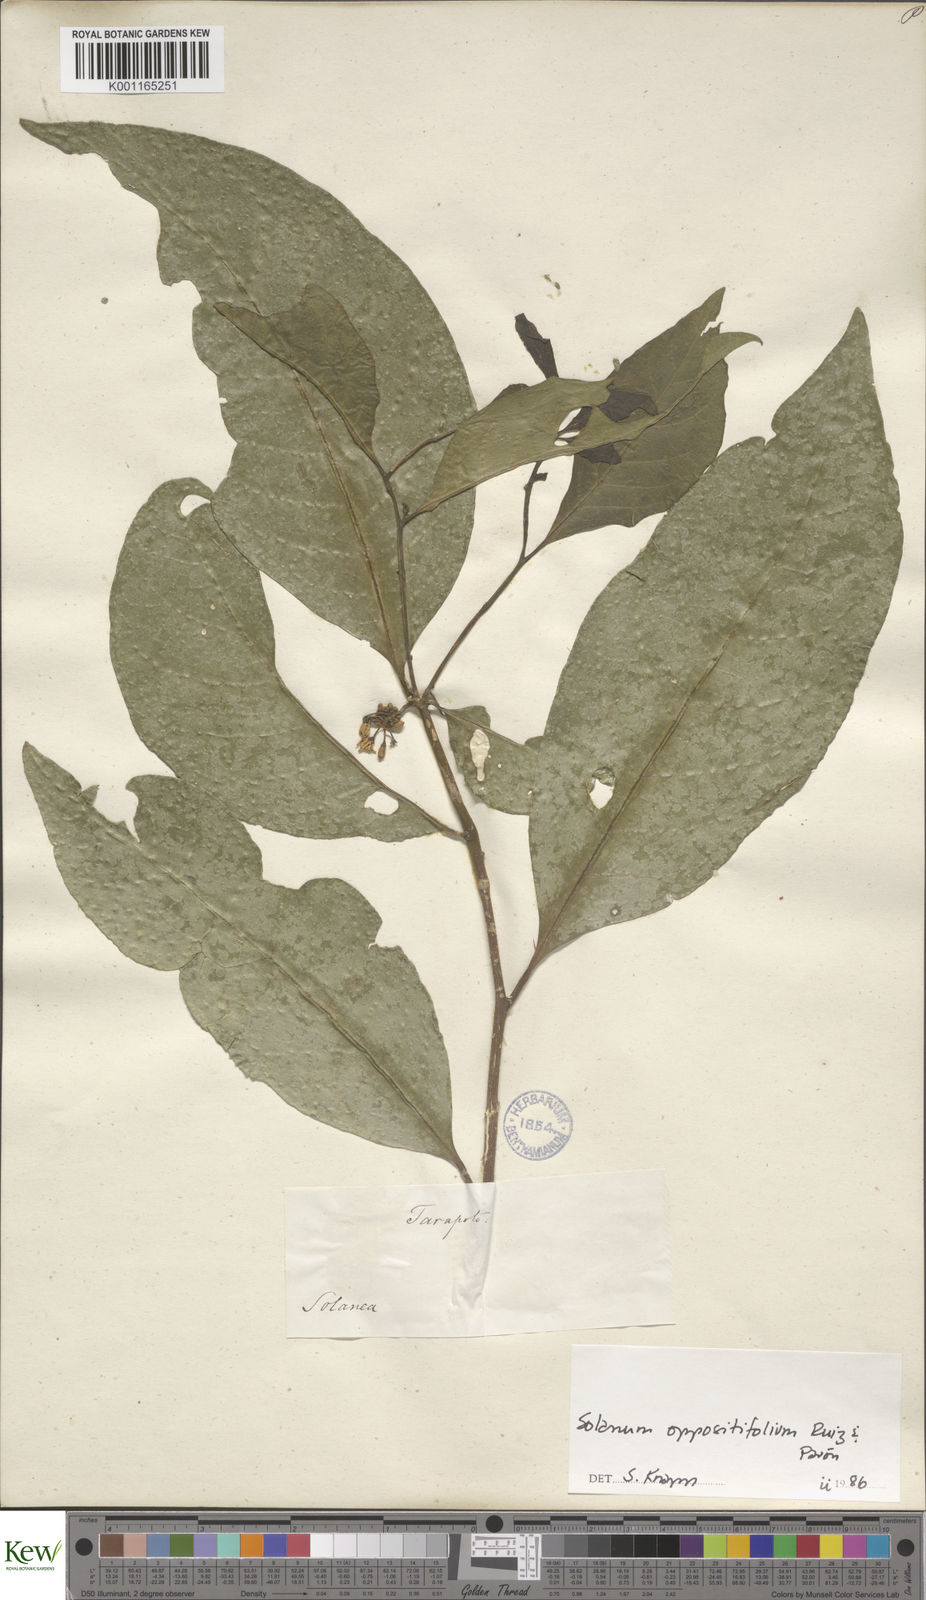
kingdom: Plantae
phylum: Tracheophyta
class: Magnoliopsida
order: Solanales
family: Solanaceae
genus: Solanum
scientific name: Solanum oppositifolium
